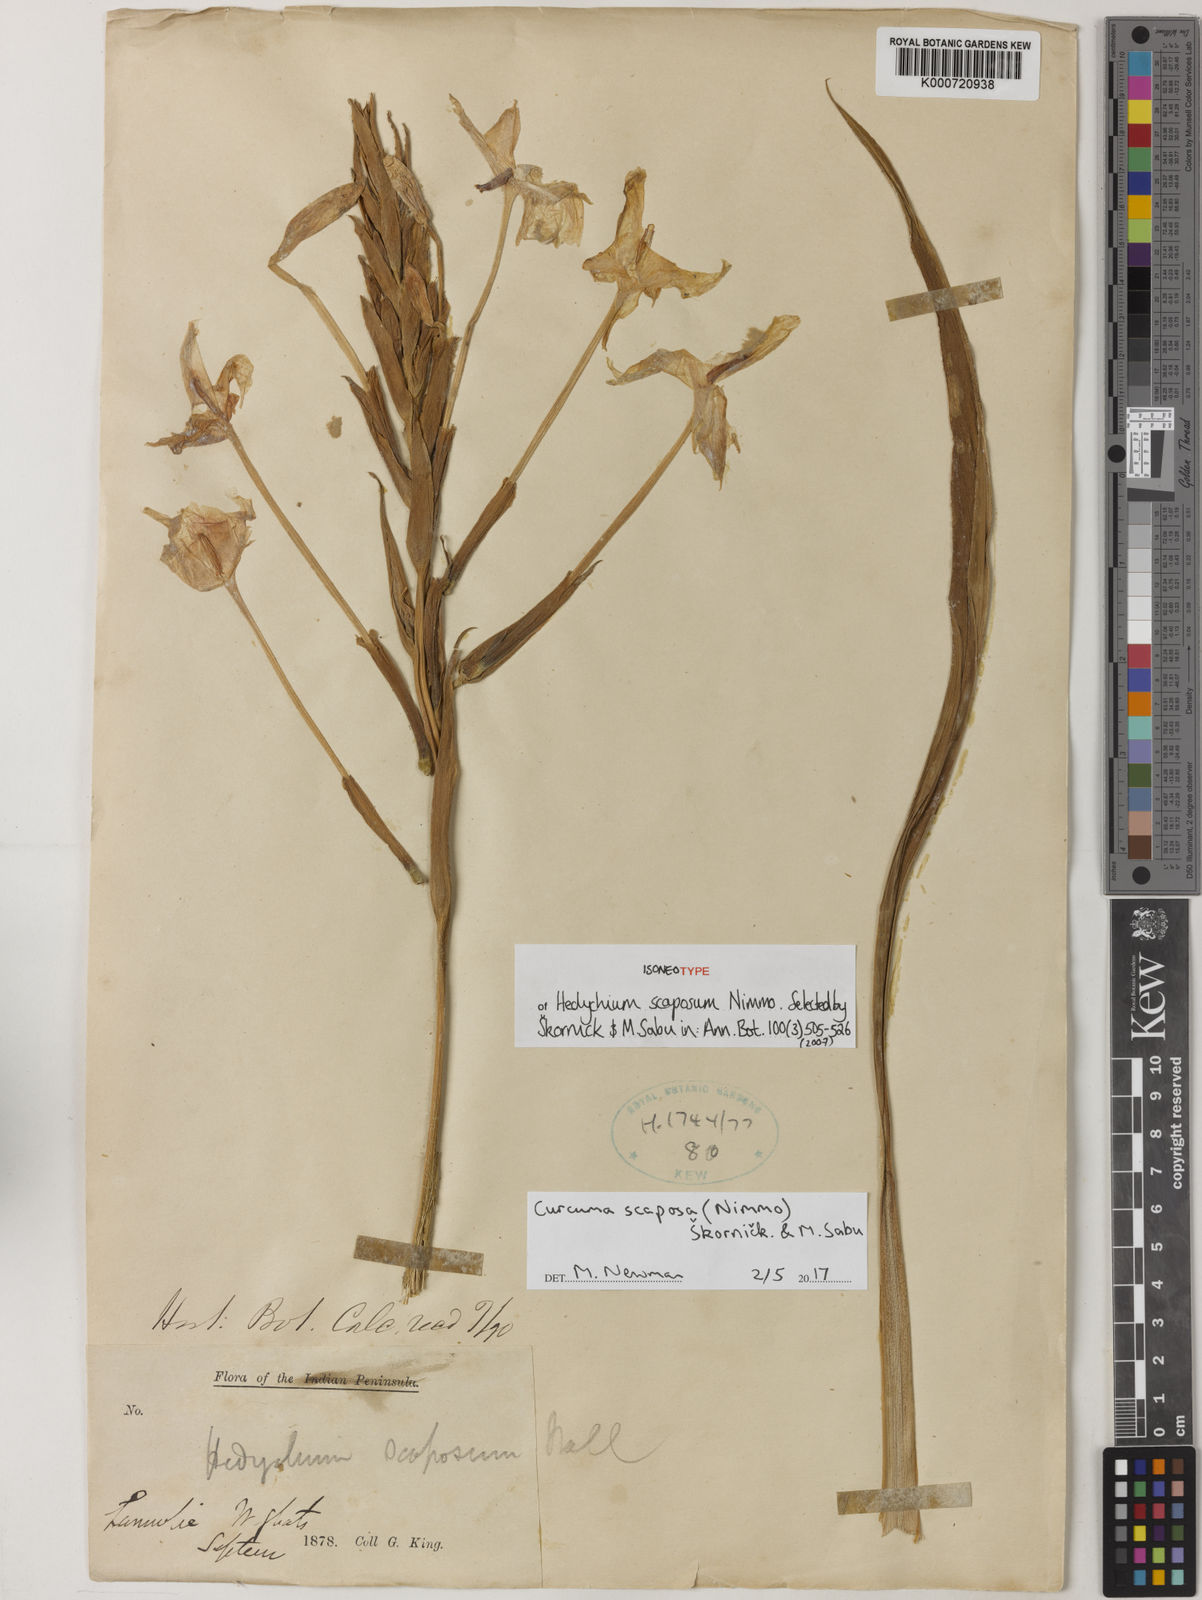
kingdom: Plantae
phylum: Tracheophyta
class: Liliopsida
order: Zingiberales
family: Zingiberaceae
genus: Curcuma
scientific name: Curcuma
